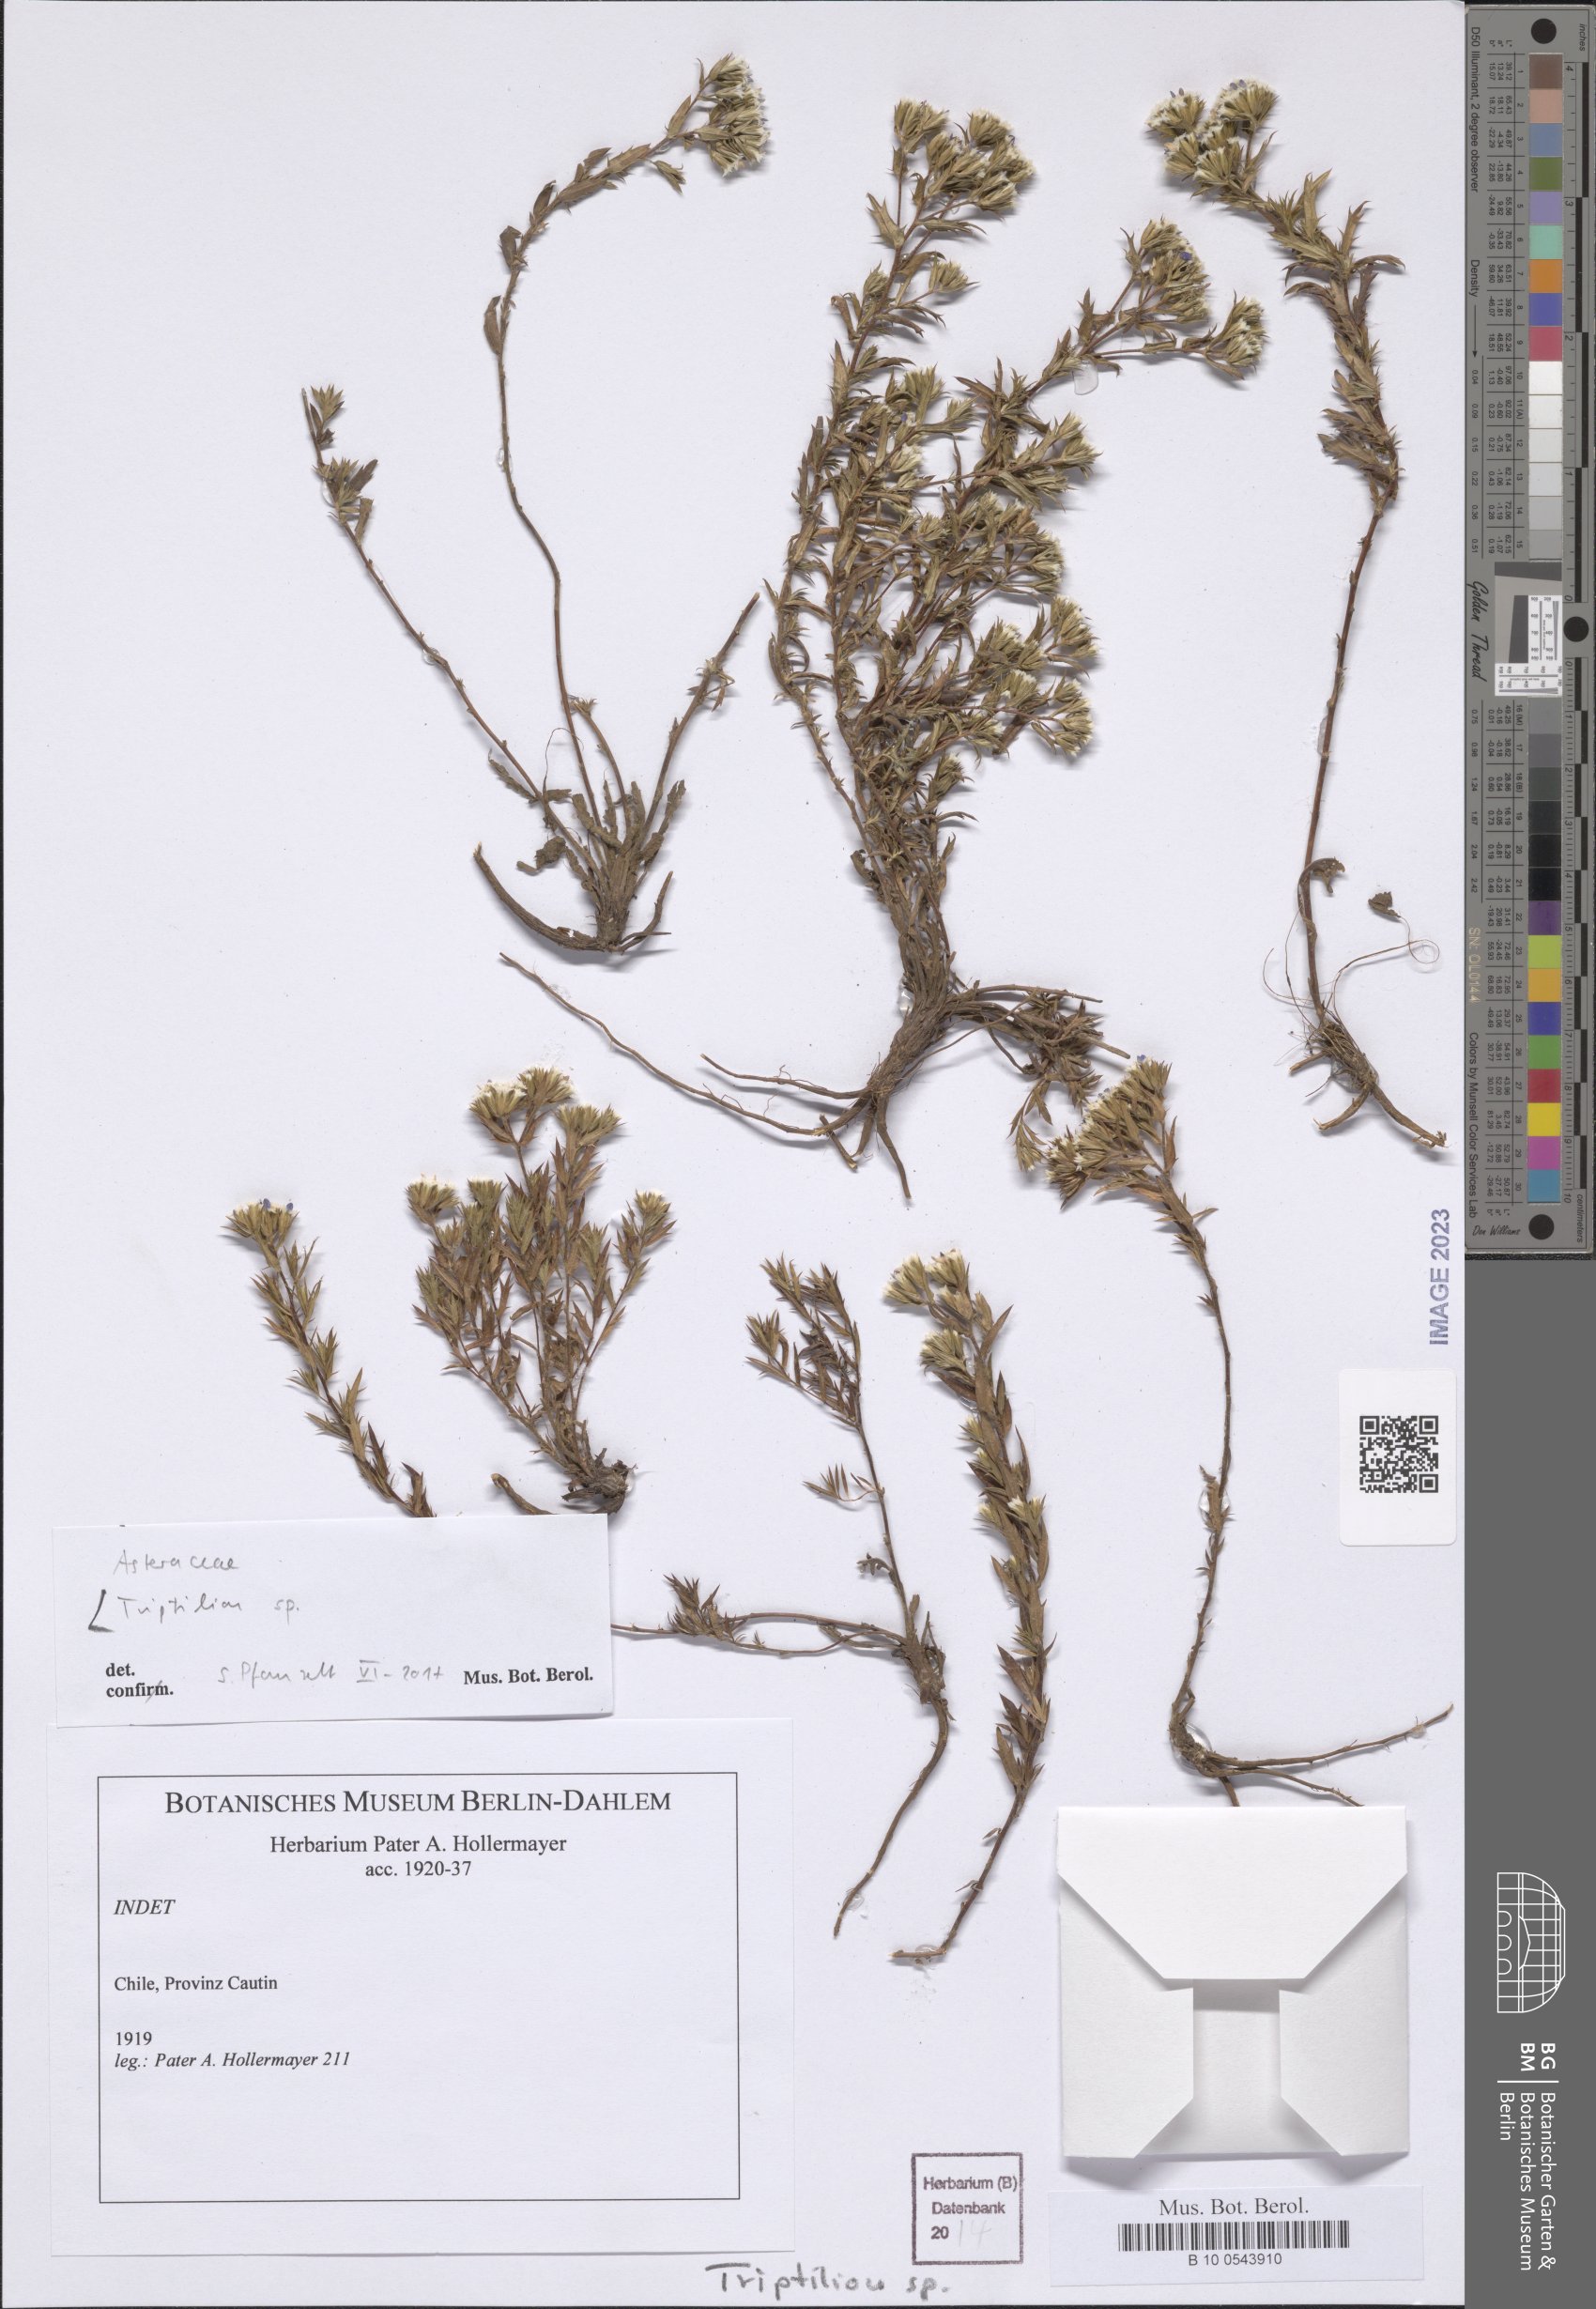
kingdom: Plantae
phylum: Tracheophyta
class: Magnoliopsida
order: Asterales
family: Asteraceae
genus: Triptilion
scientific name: Triptilion
